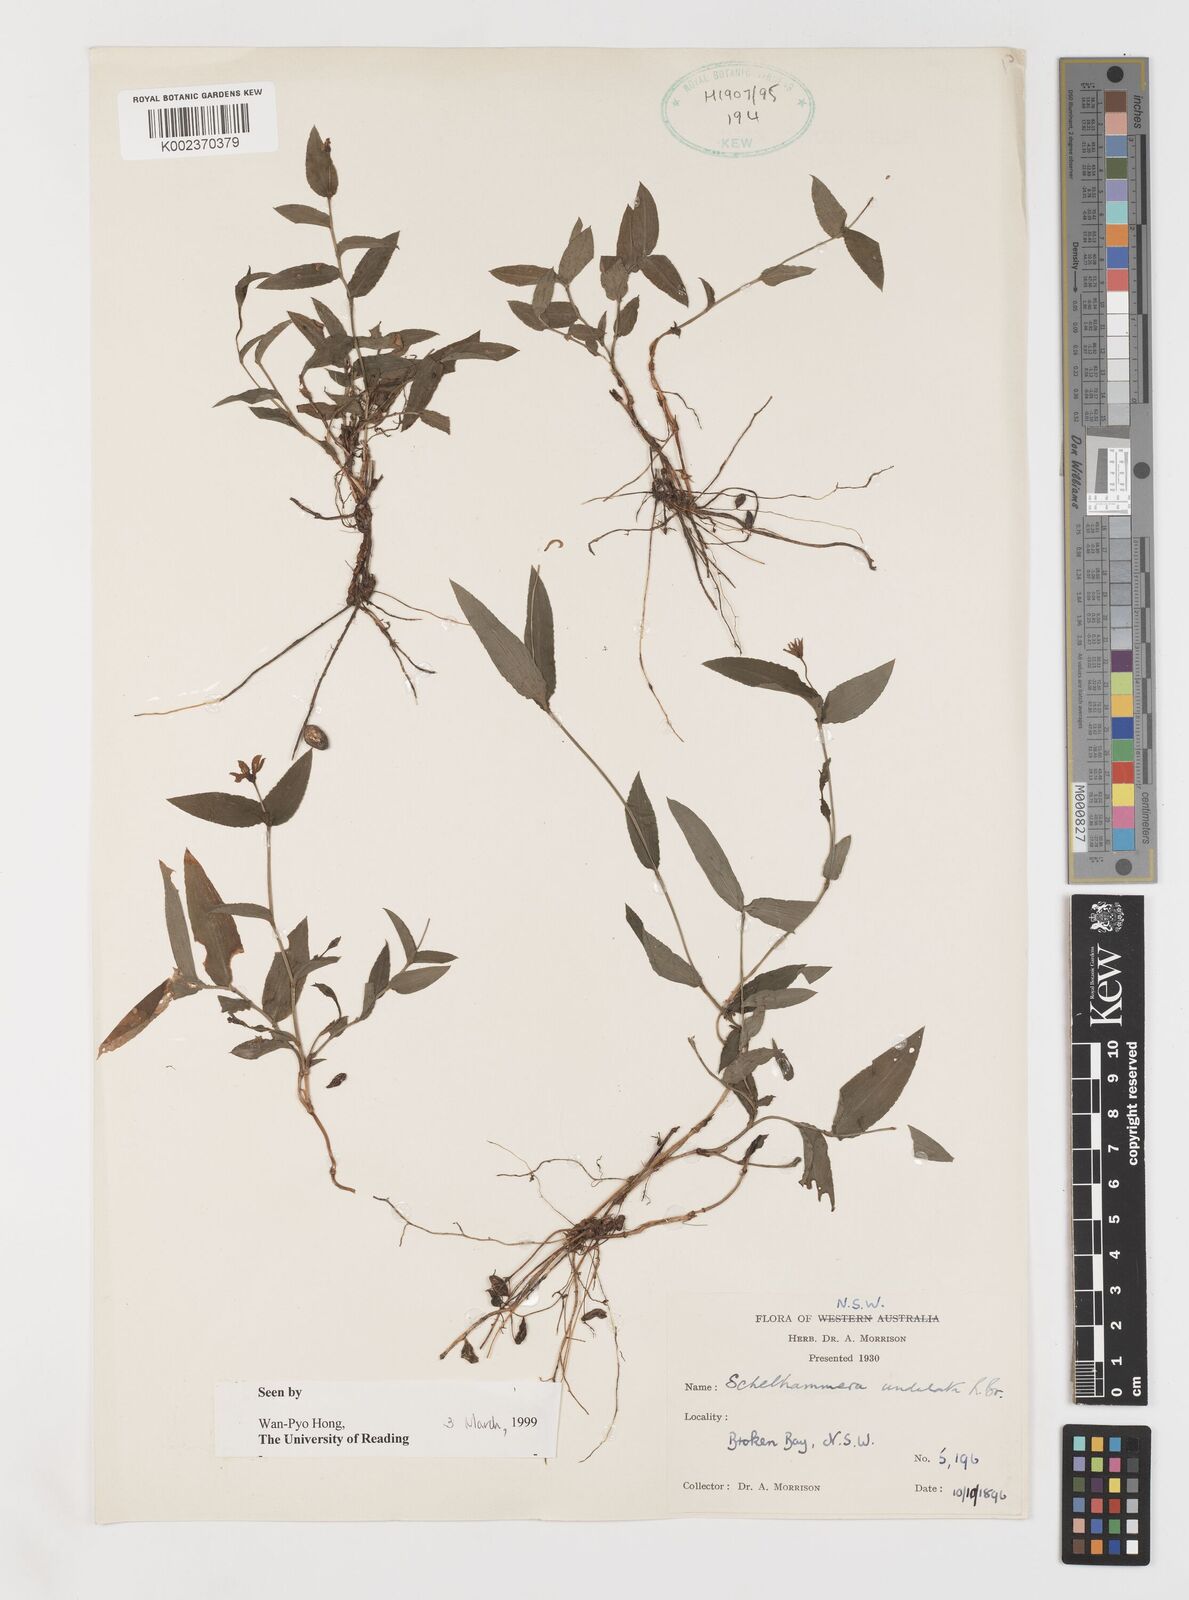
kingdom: Plantae
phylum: Tracheophyta
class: Liliopsida
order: Liliales
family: Colchicaceae
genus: Schelhammera
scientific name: Schelhammera undulata
